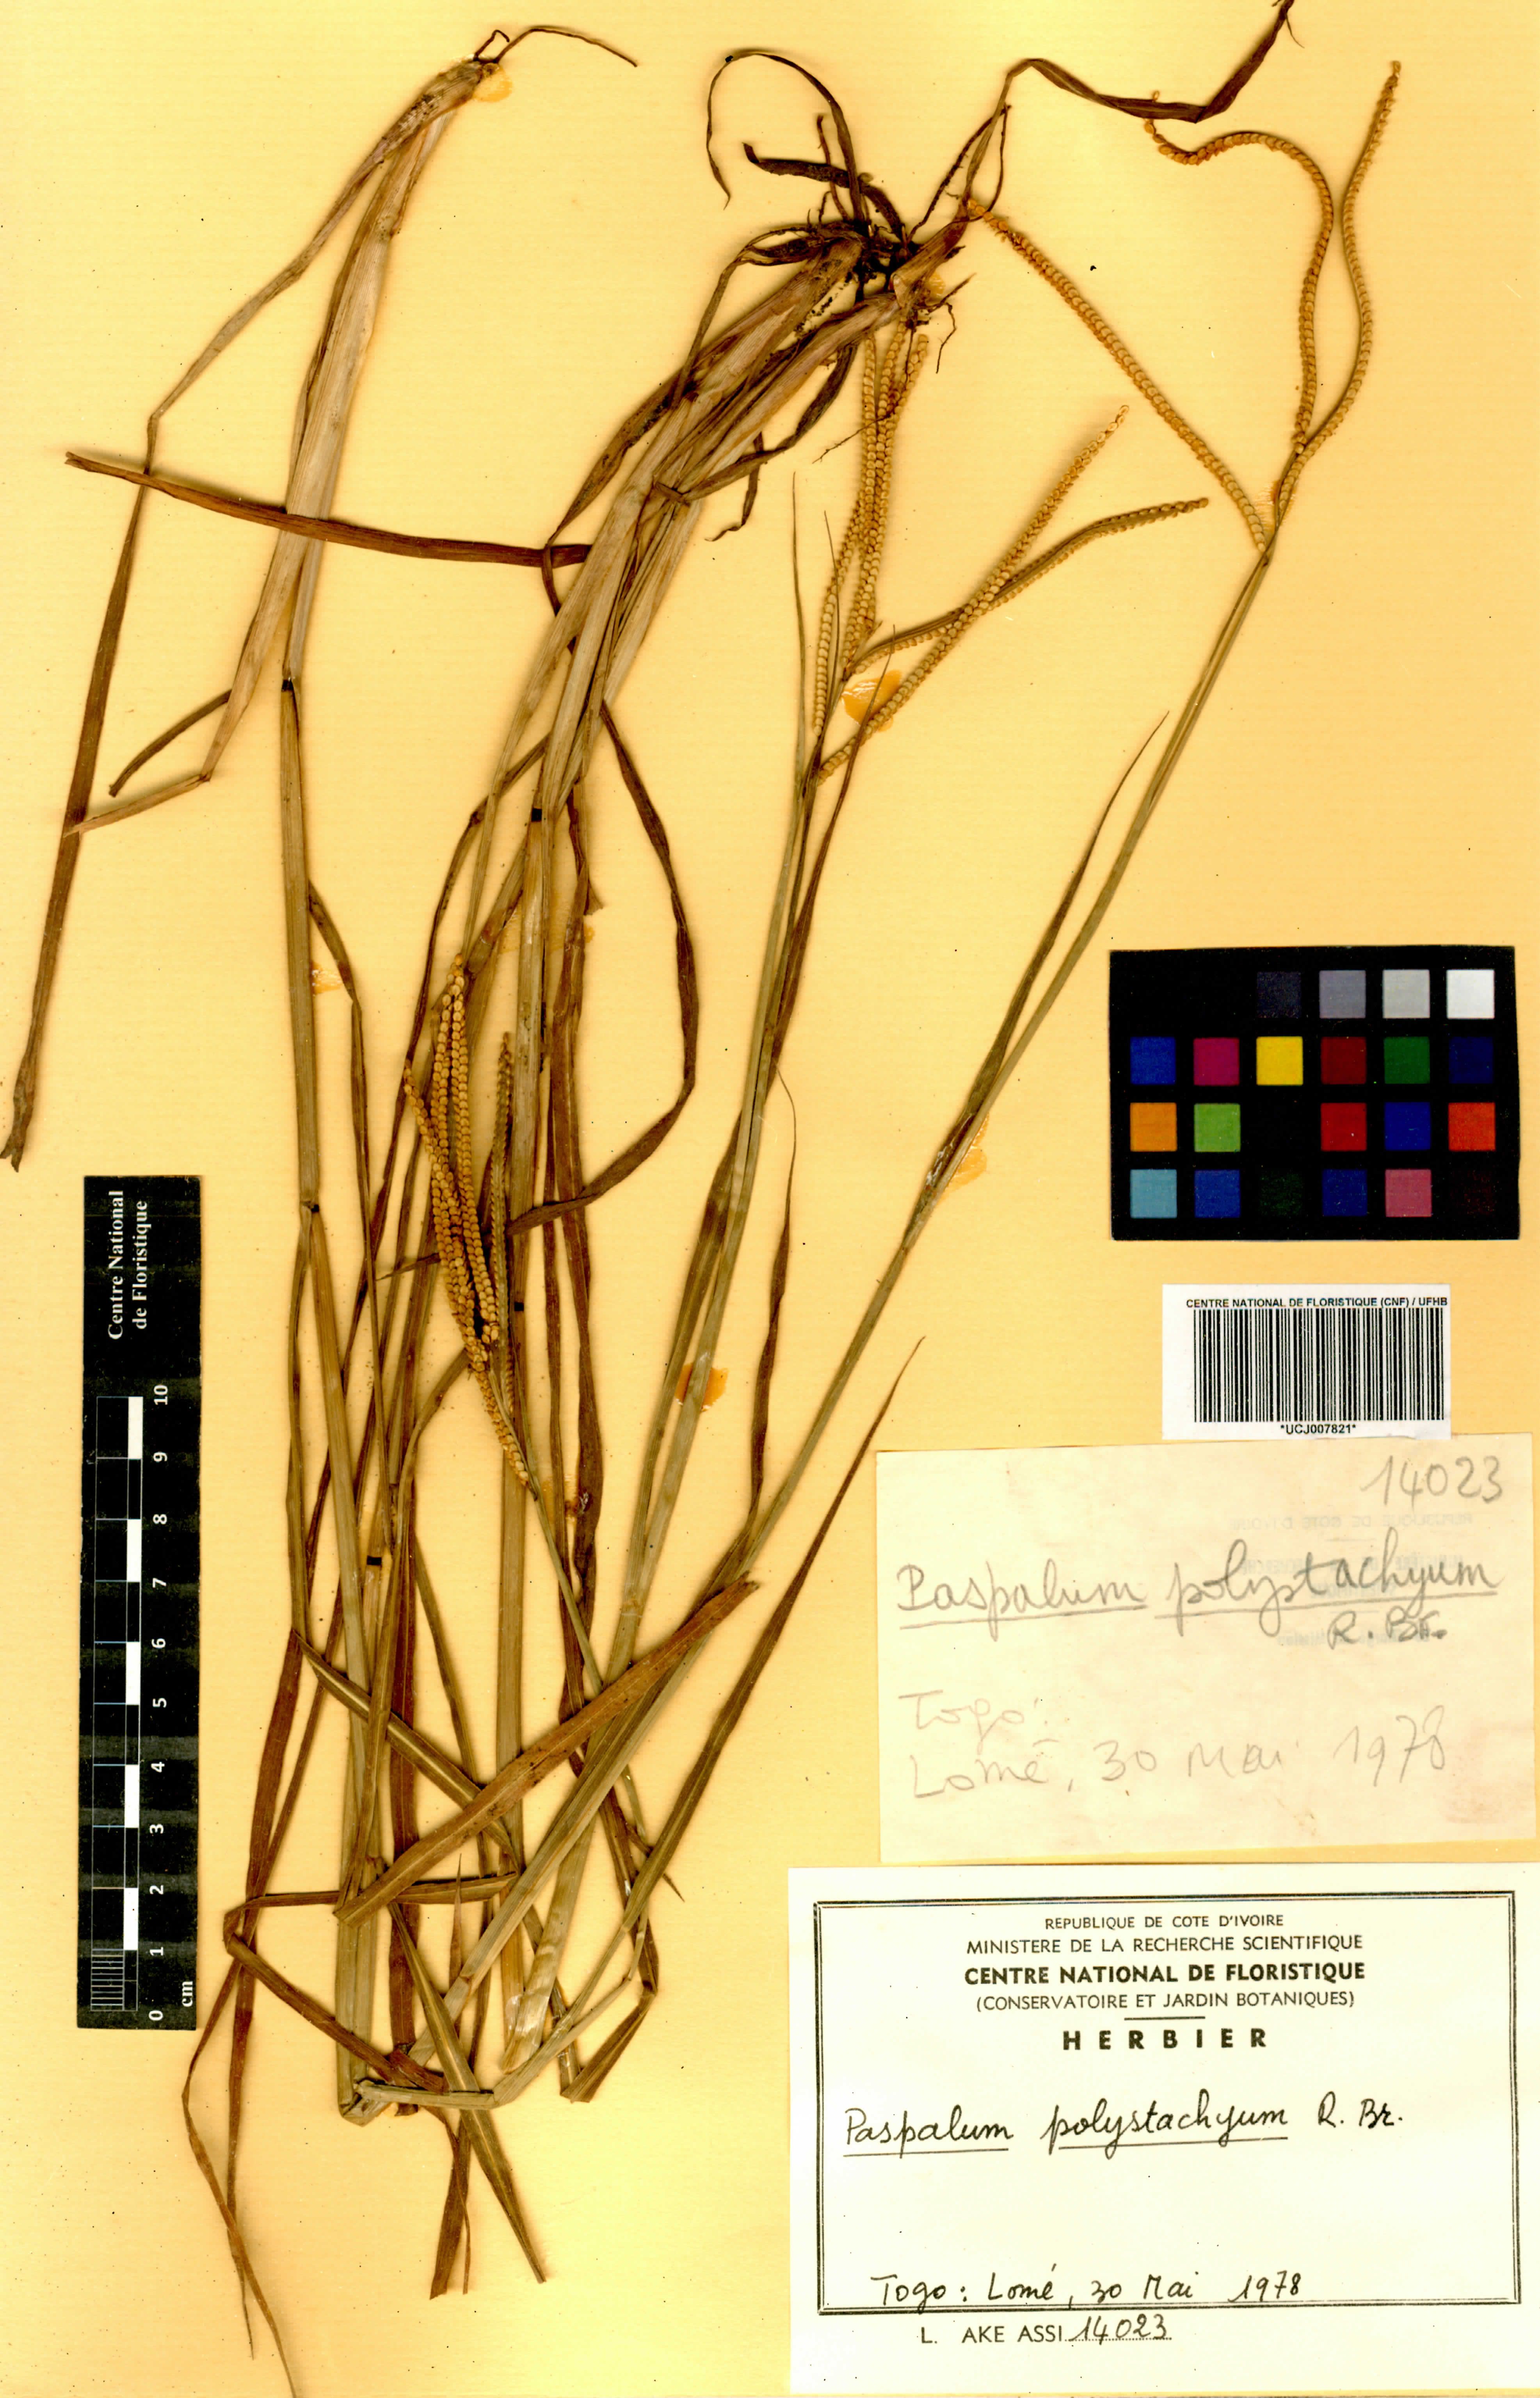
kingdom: Plantae
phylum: Tracheophyta
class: Liliopsida
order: Poales
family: Poaceae
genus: Paspalum
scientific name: Paspalum scrobiculatum
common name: Kodo millet
